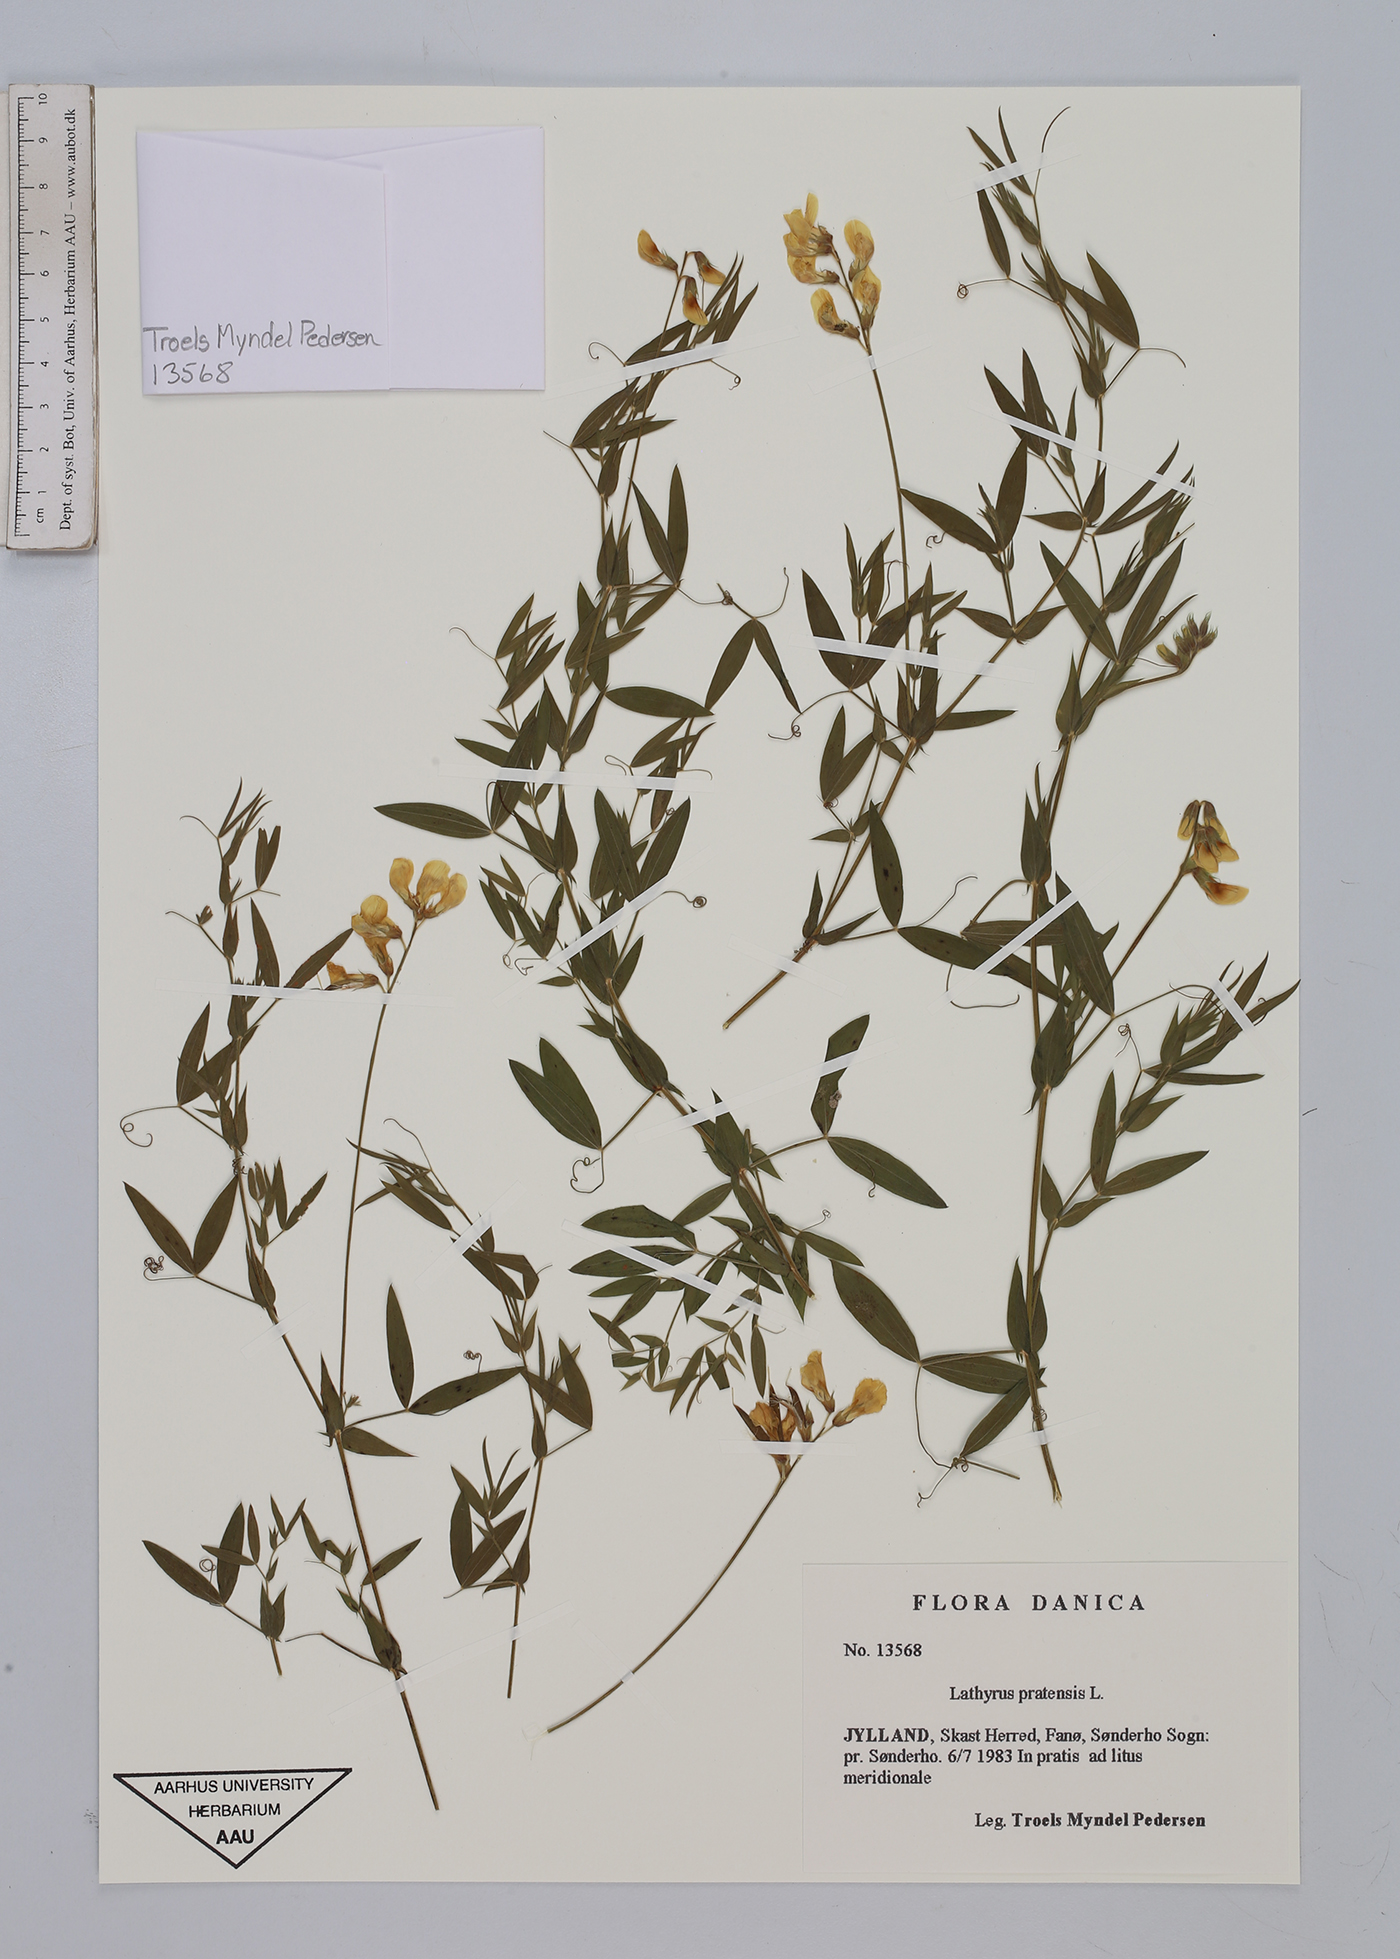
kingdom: Plantae
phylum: Tracheophyta
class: Magnoliopsida
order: Fabales
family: Fabaceae
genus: Lathyrus
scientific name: Lathyrus pratensis
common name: Meadow vetchling
